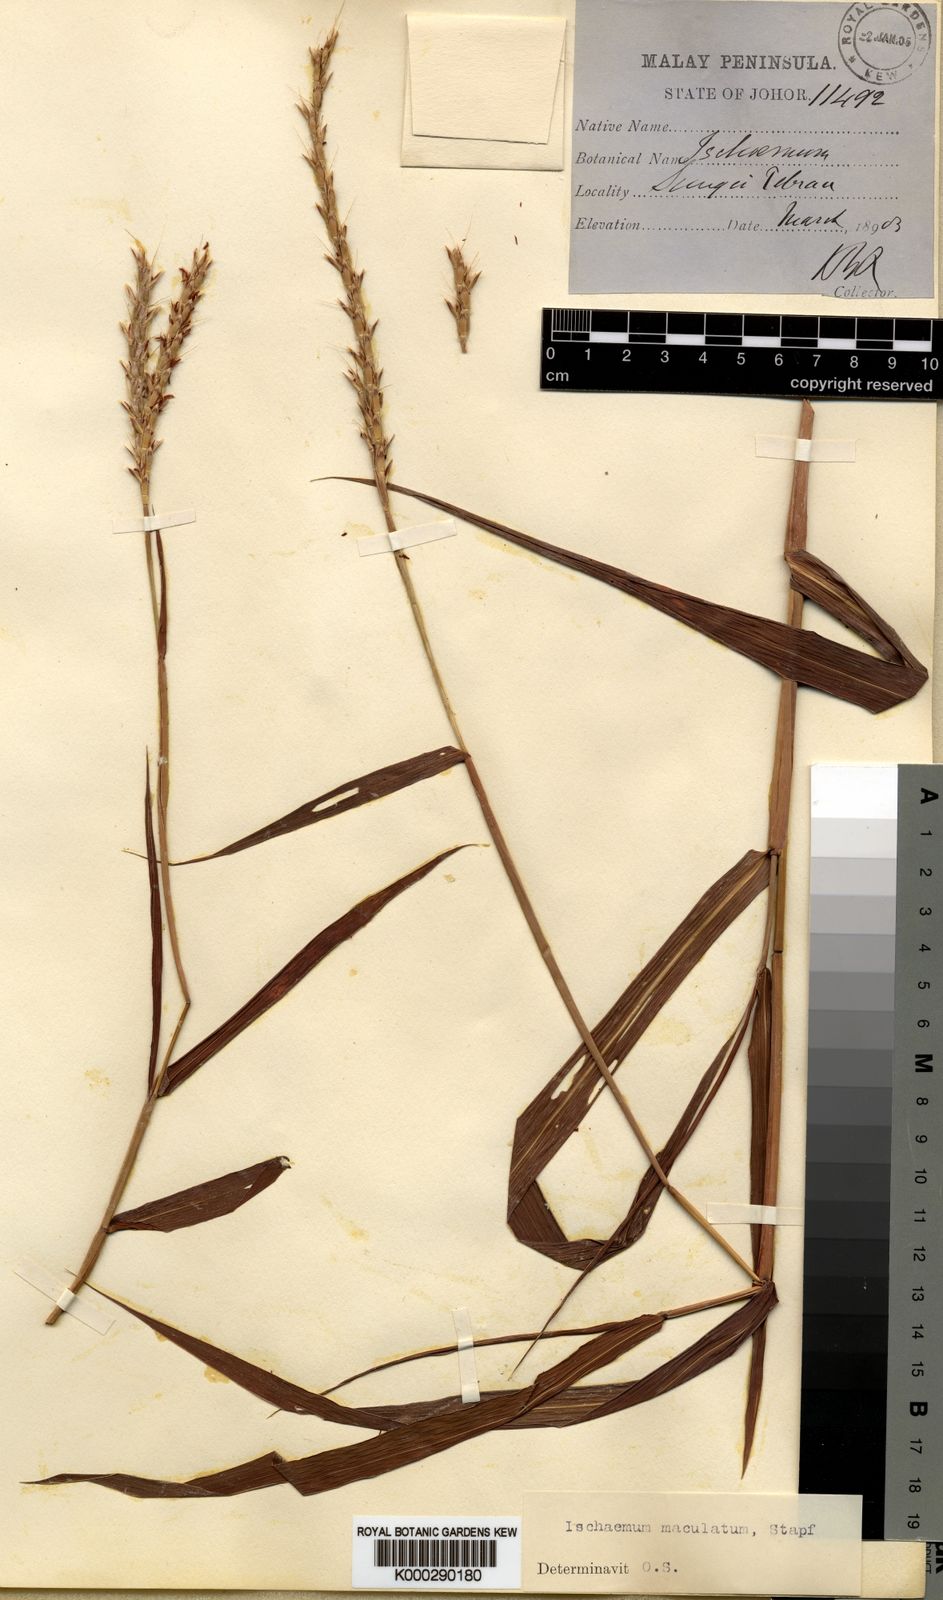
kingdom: Plantae
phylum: Tracheophyta
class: Liliopsida
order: Poales
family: Poaceae
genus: Ischaemum
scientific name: Ischaemum feildingianum
